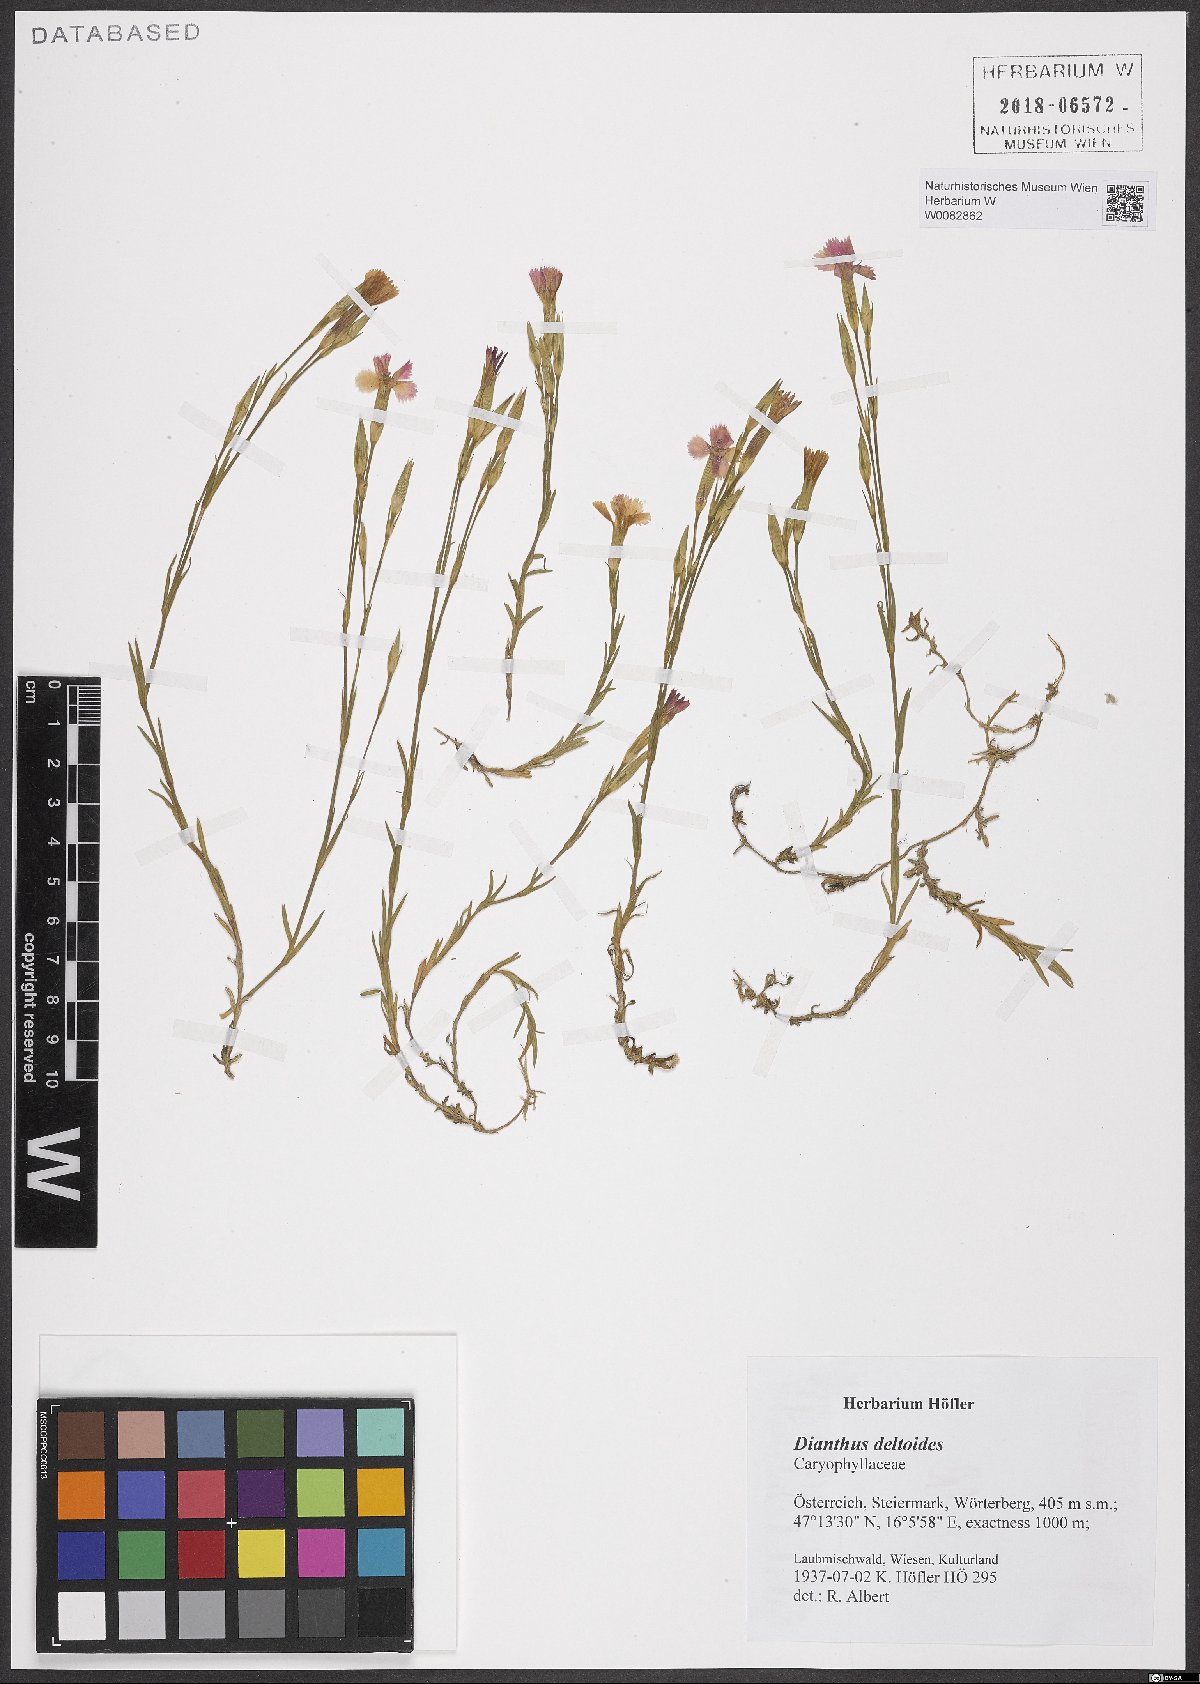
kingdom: Plantae
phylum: Tracheophyta
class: Magnoliopsida
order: Caryophyllales
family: Caryophyllaceae
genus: Dianthus
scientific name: Dianthus deltoides
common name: Maiden pink
